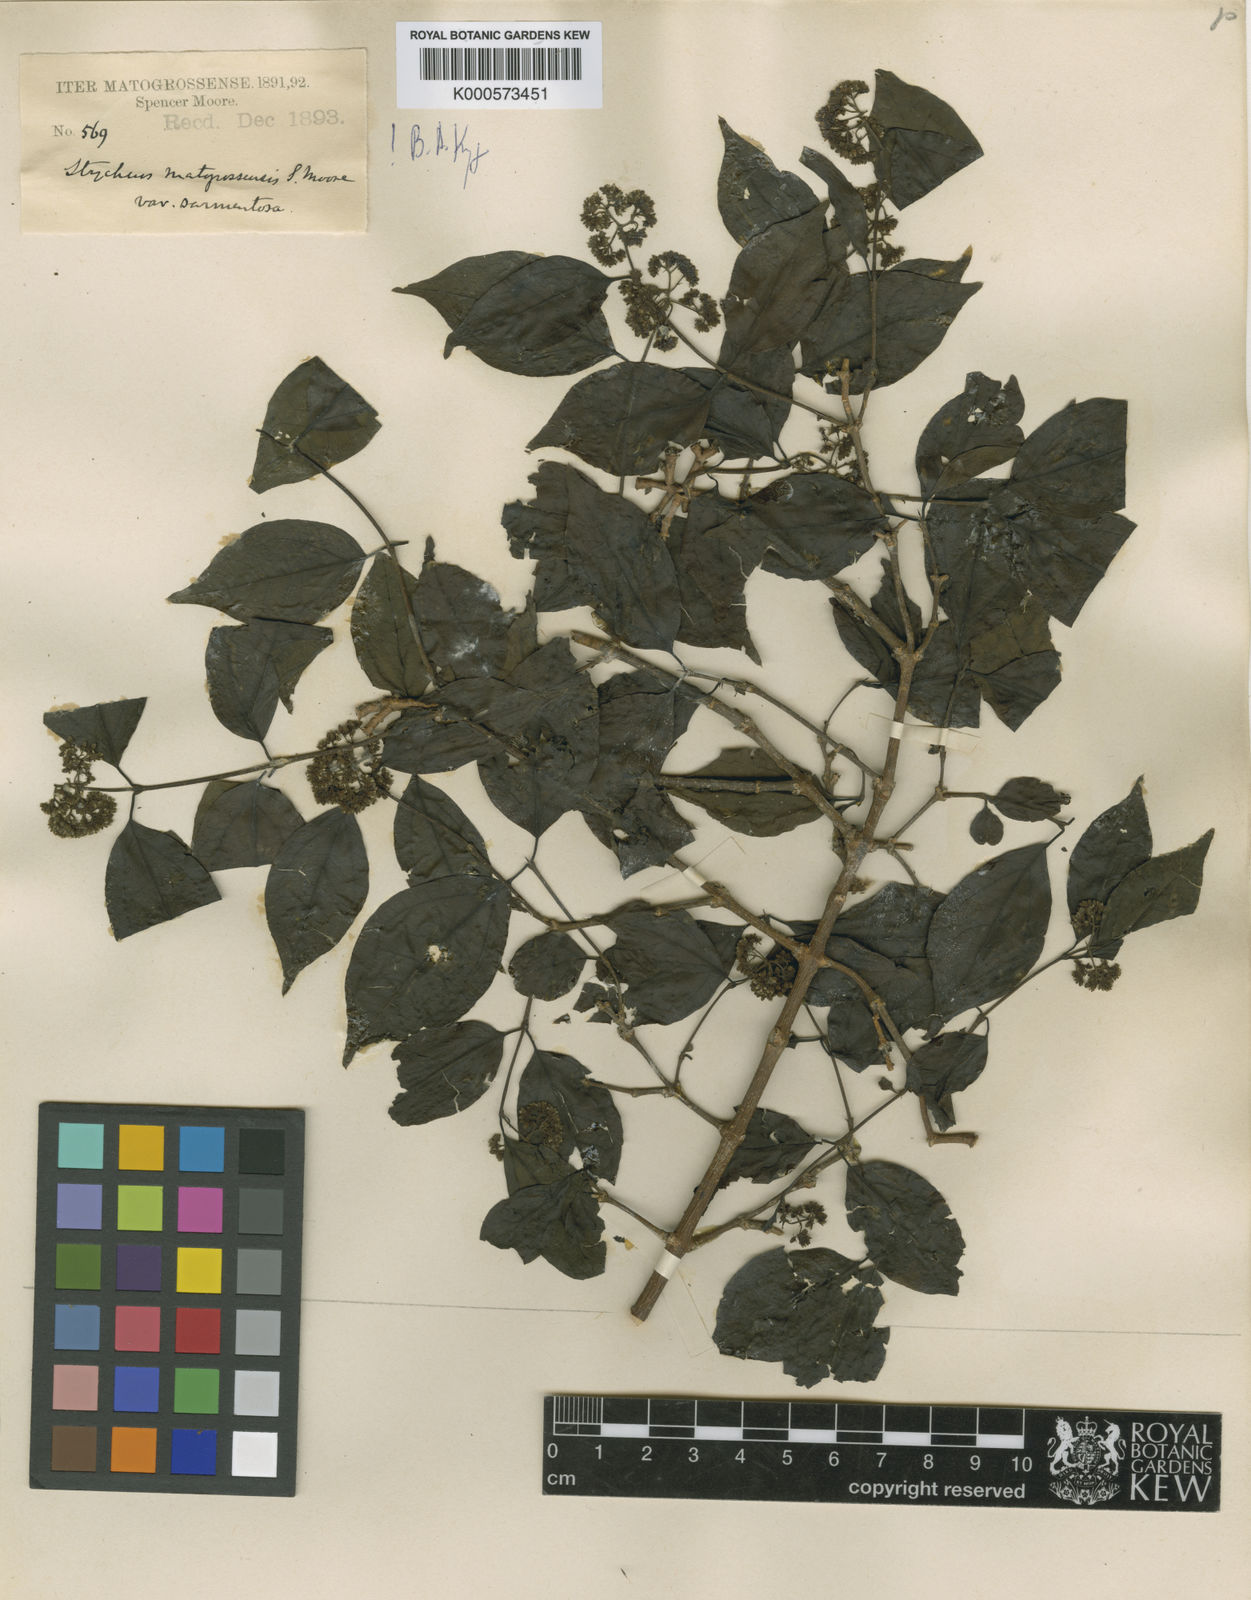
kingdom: Plantae
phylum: Tracheophyta
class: Magnoliopsida
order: Gentianales
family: Loganiaceae
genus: Strychnos
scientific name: Strychnos mattogrossensis
